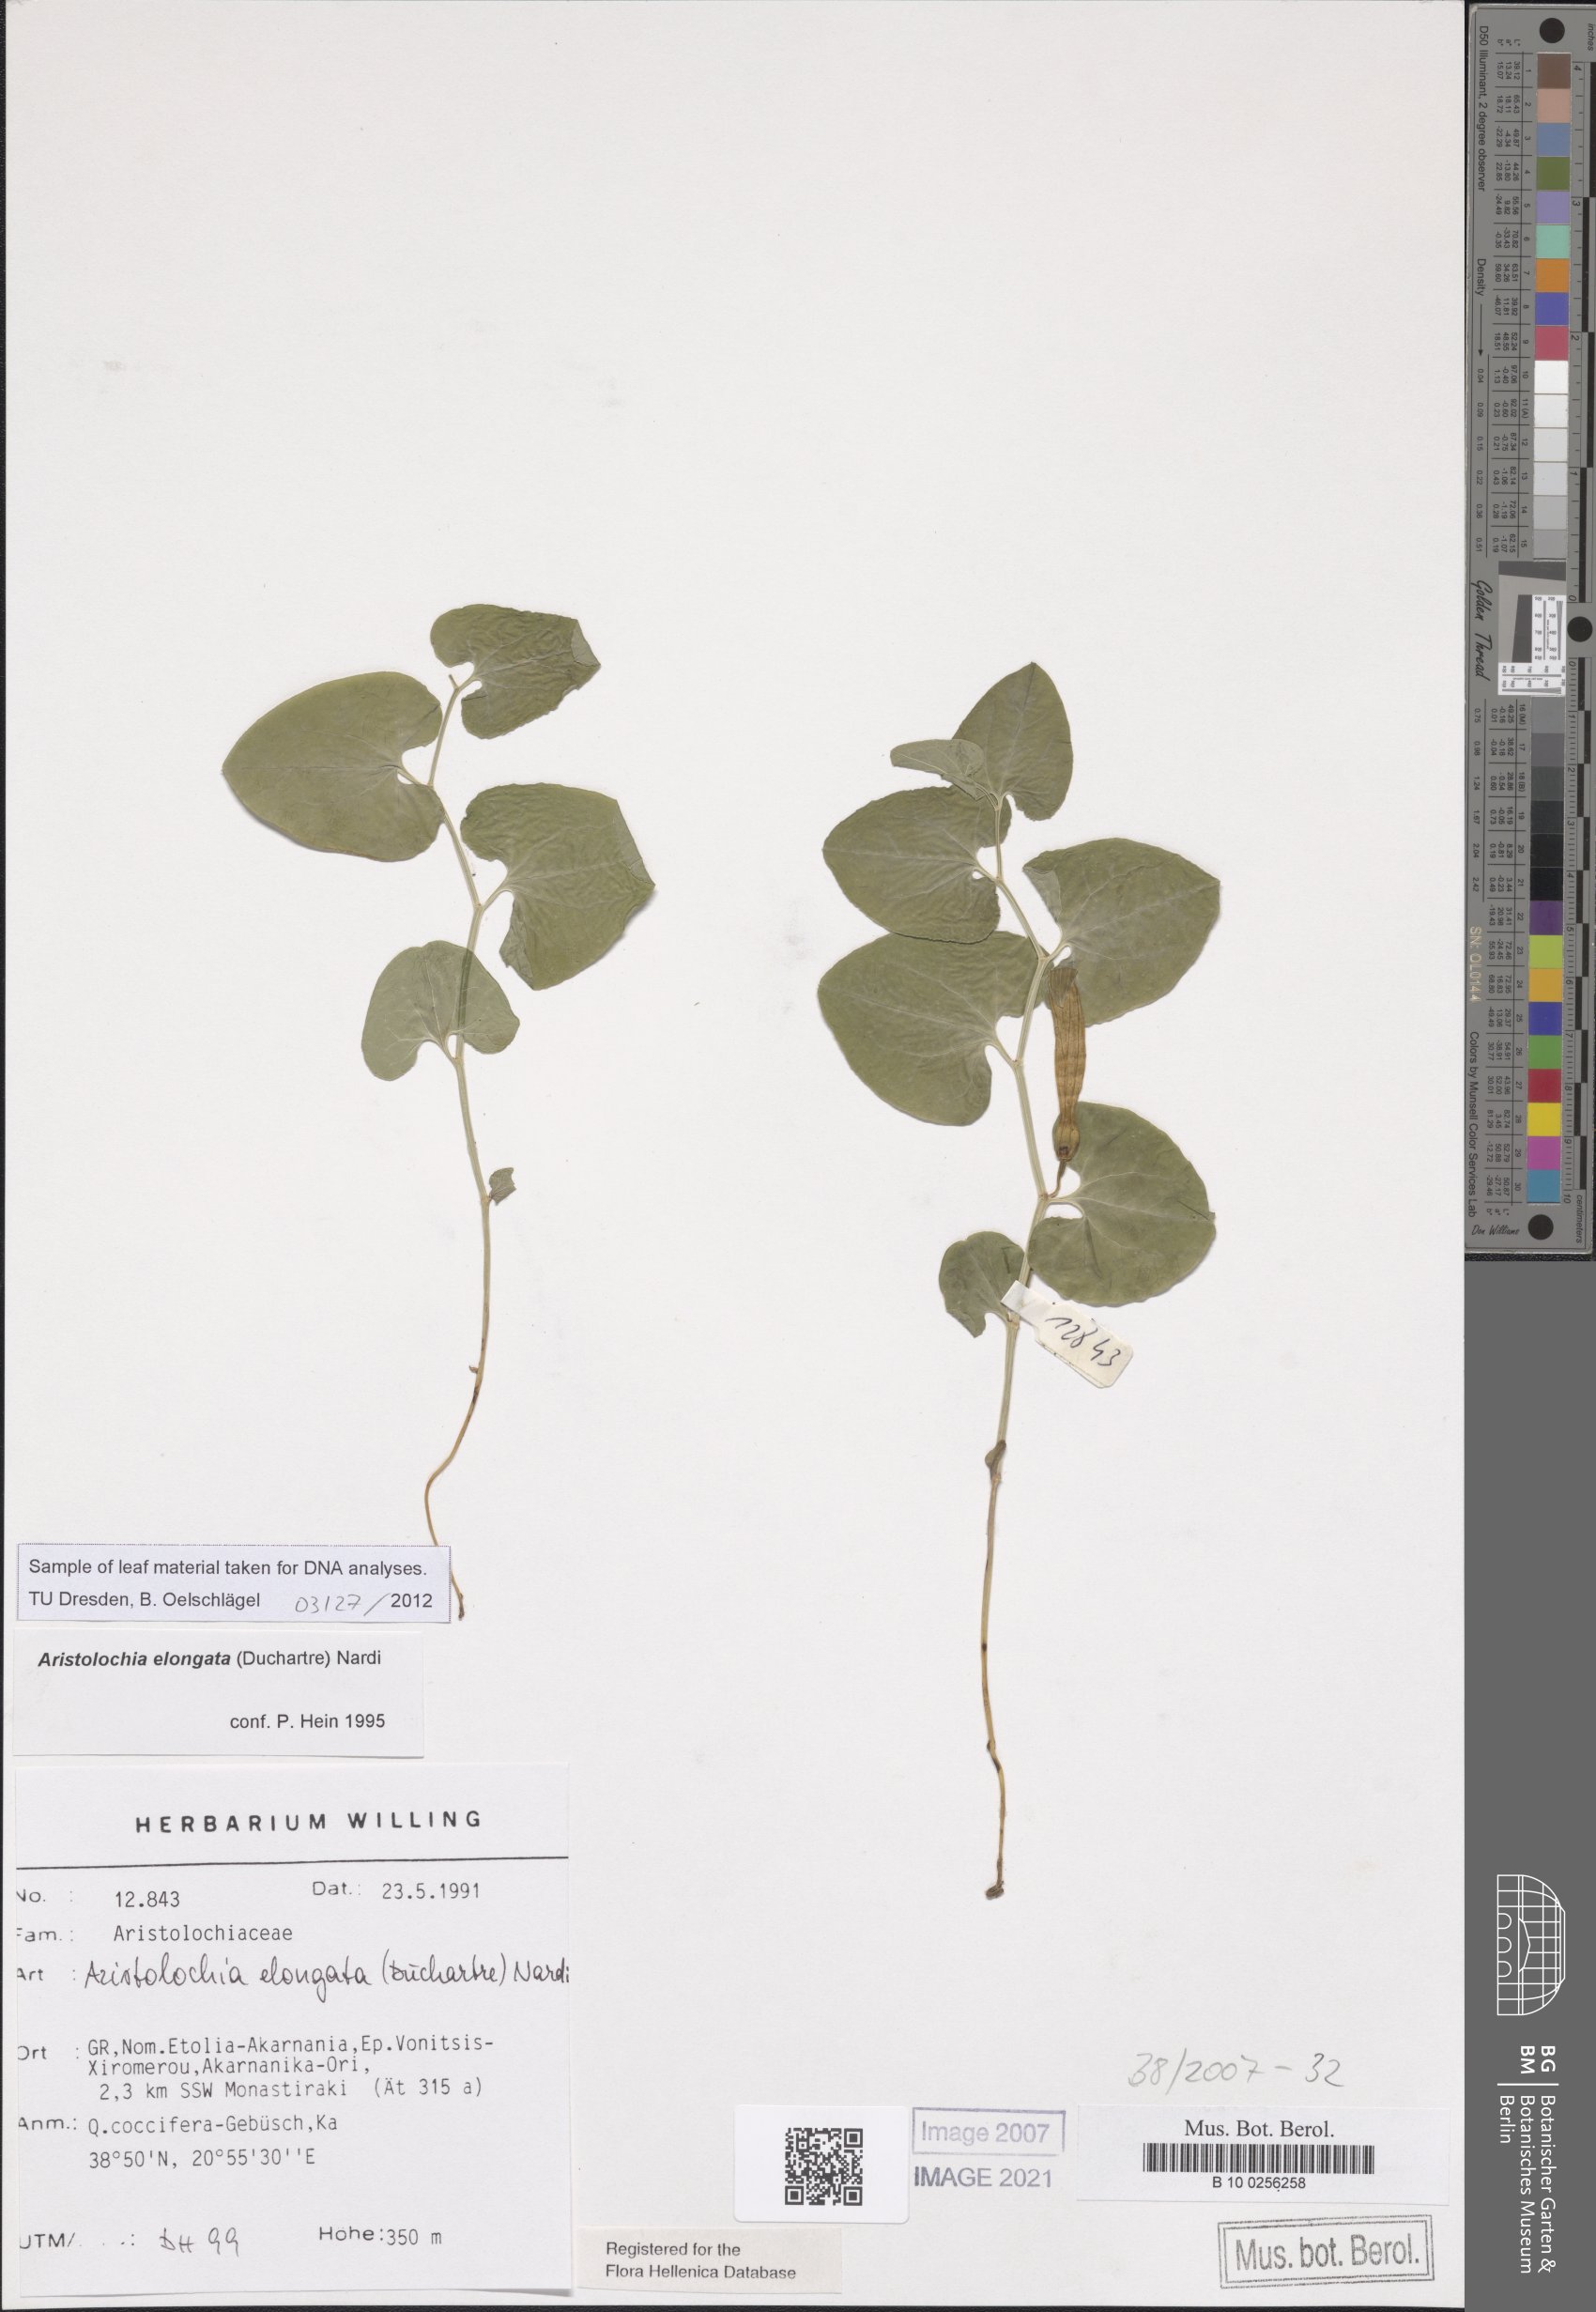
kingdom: Plantae
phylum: Tracheophyta
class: Magnoliopsida
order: Piperales
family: Aristolochiaceae
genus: Aristolochia
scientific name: Aristolochia nardiana
